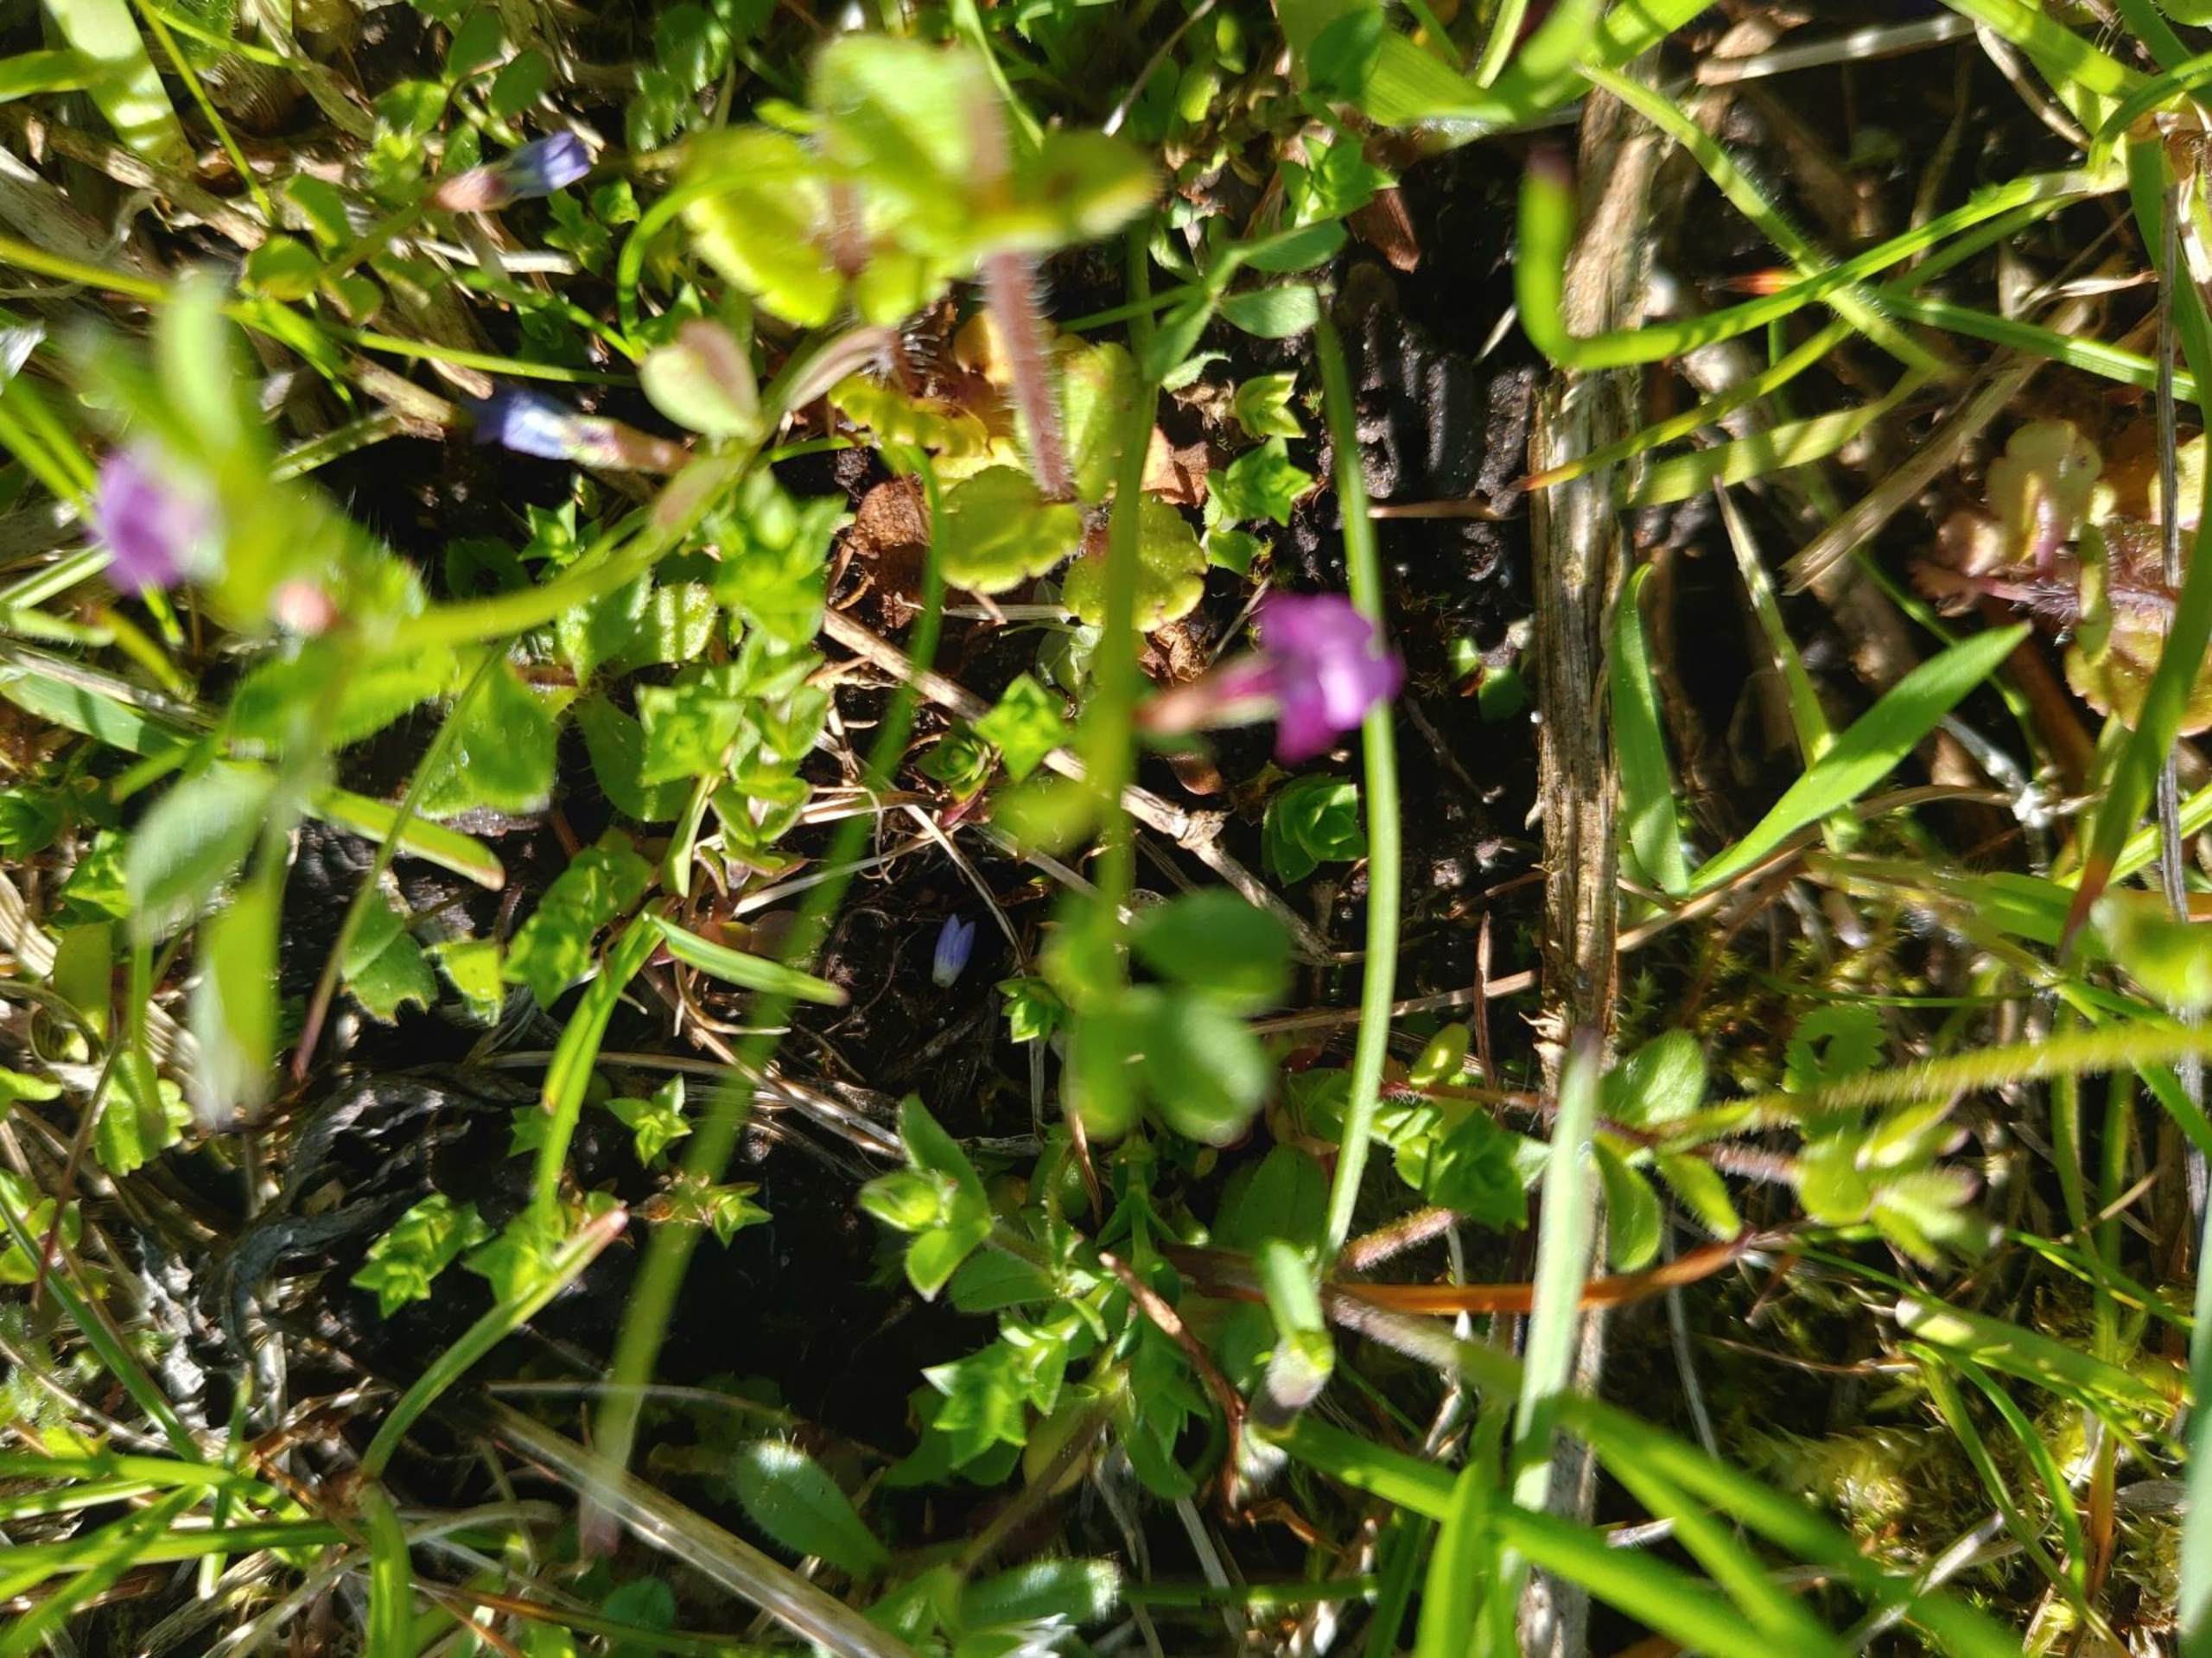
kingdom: Plantae
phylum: Tracheophyta
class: Magnoliopsida
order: Fabales
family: Fabaceae
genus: Vicia
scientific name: Vicia lathyroides
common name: Vår-vikke
